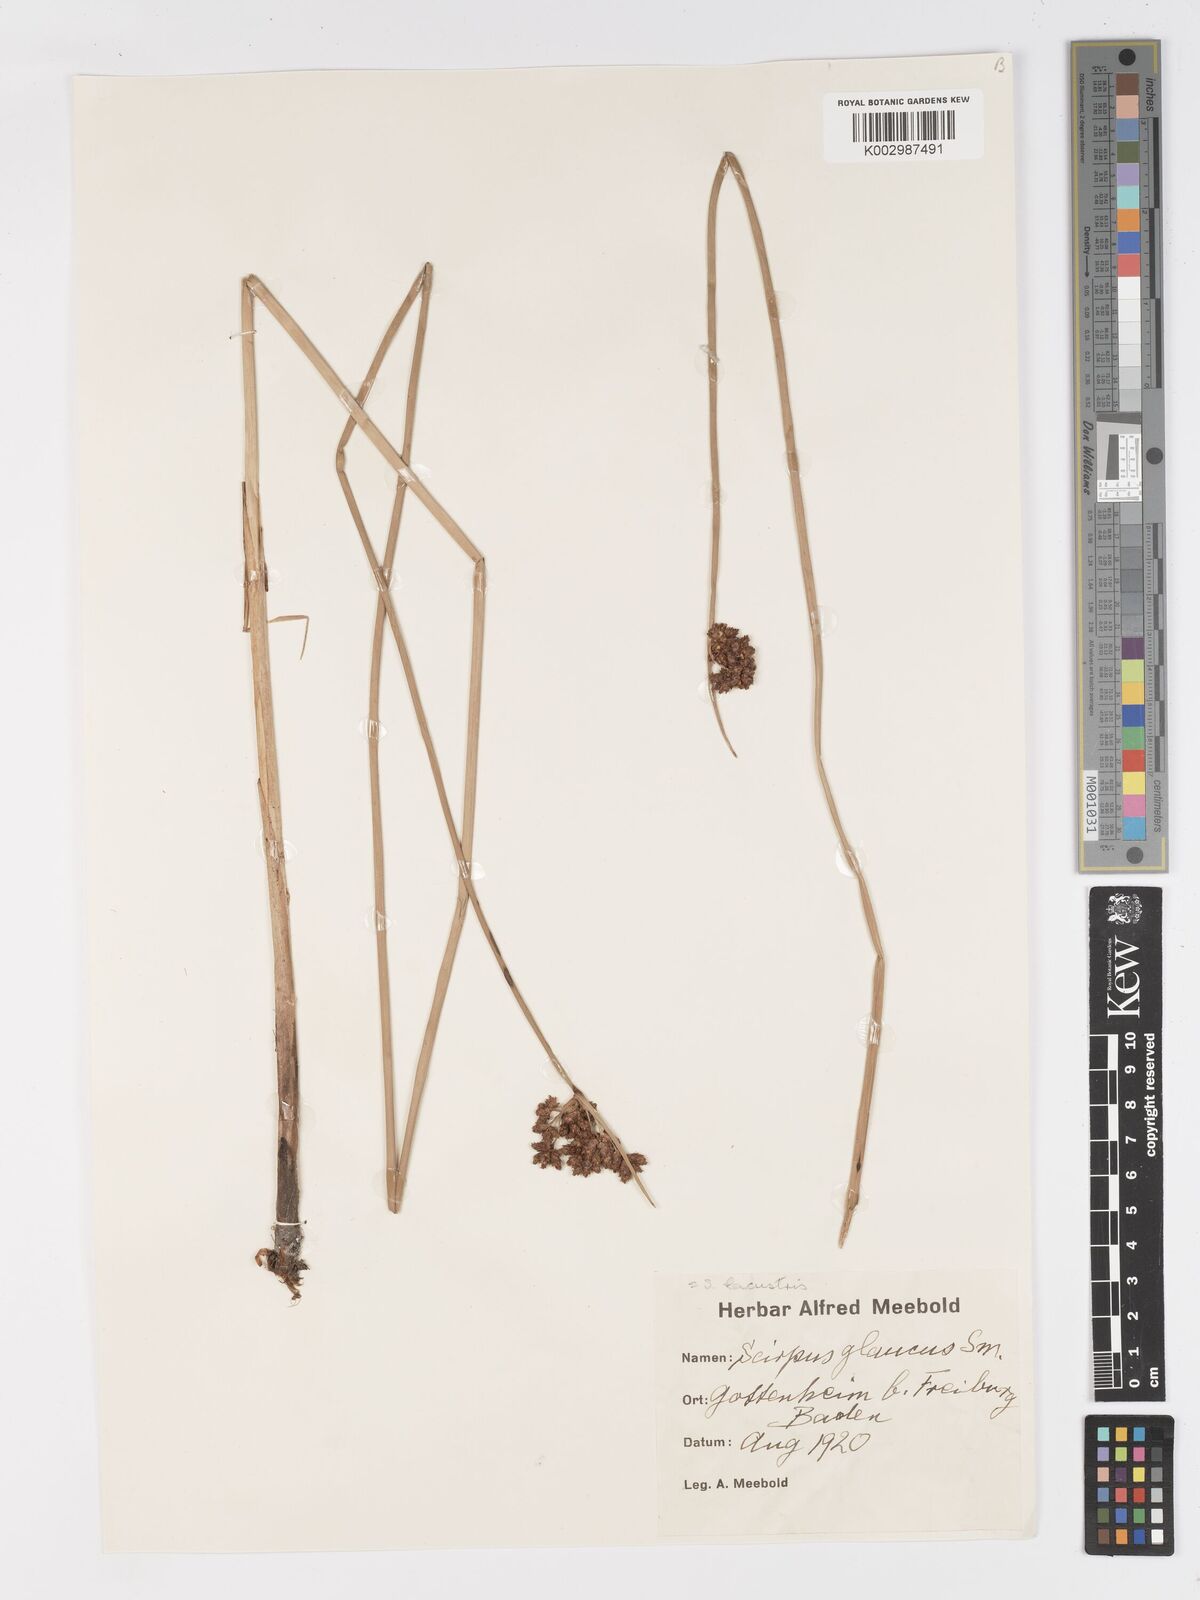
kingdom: Plantae
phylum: Tracheophyta
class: Liliopsida
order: Poales
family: Cyperaceae
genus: Schoenoplectus
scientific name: Schoenoplectus lacustris
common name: Common club-rush
